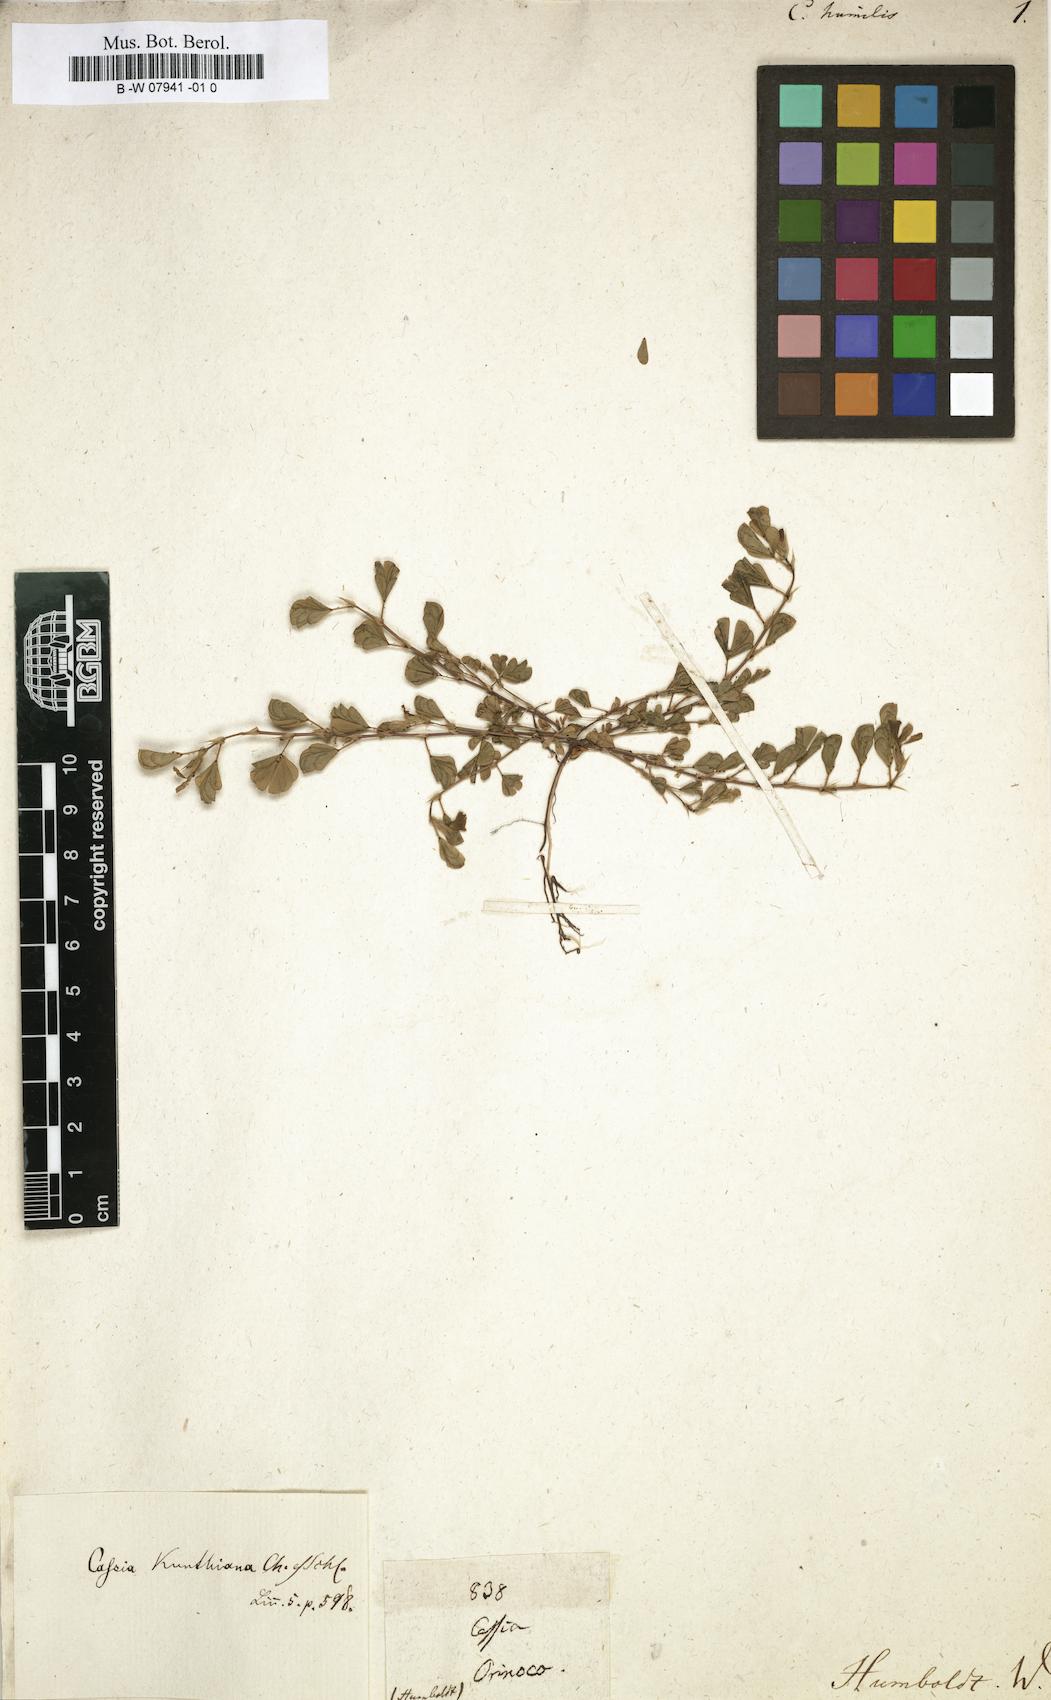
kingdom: Plantae
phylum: Tracheophyta
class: Magnoliopsida
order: Fabales
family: Fabaceae
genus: Chamaecrista
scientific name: Chamaecrista kunthiana
